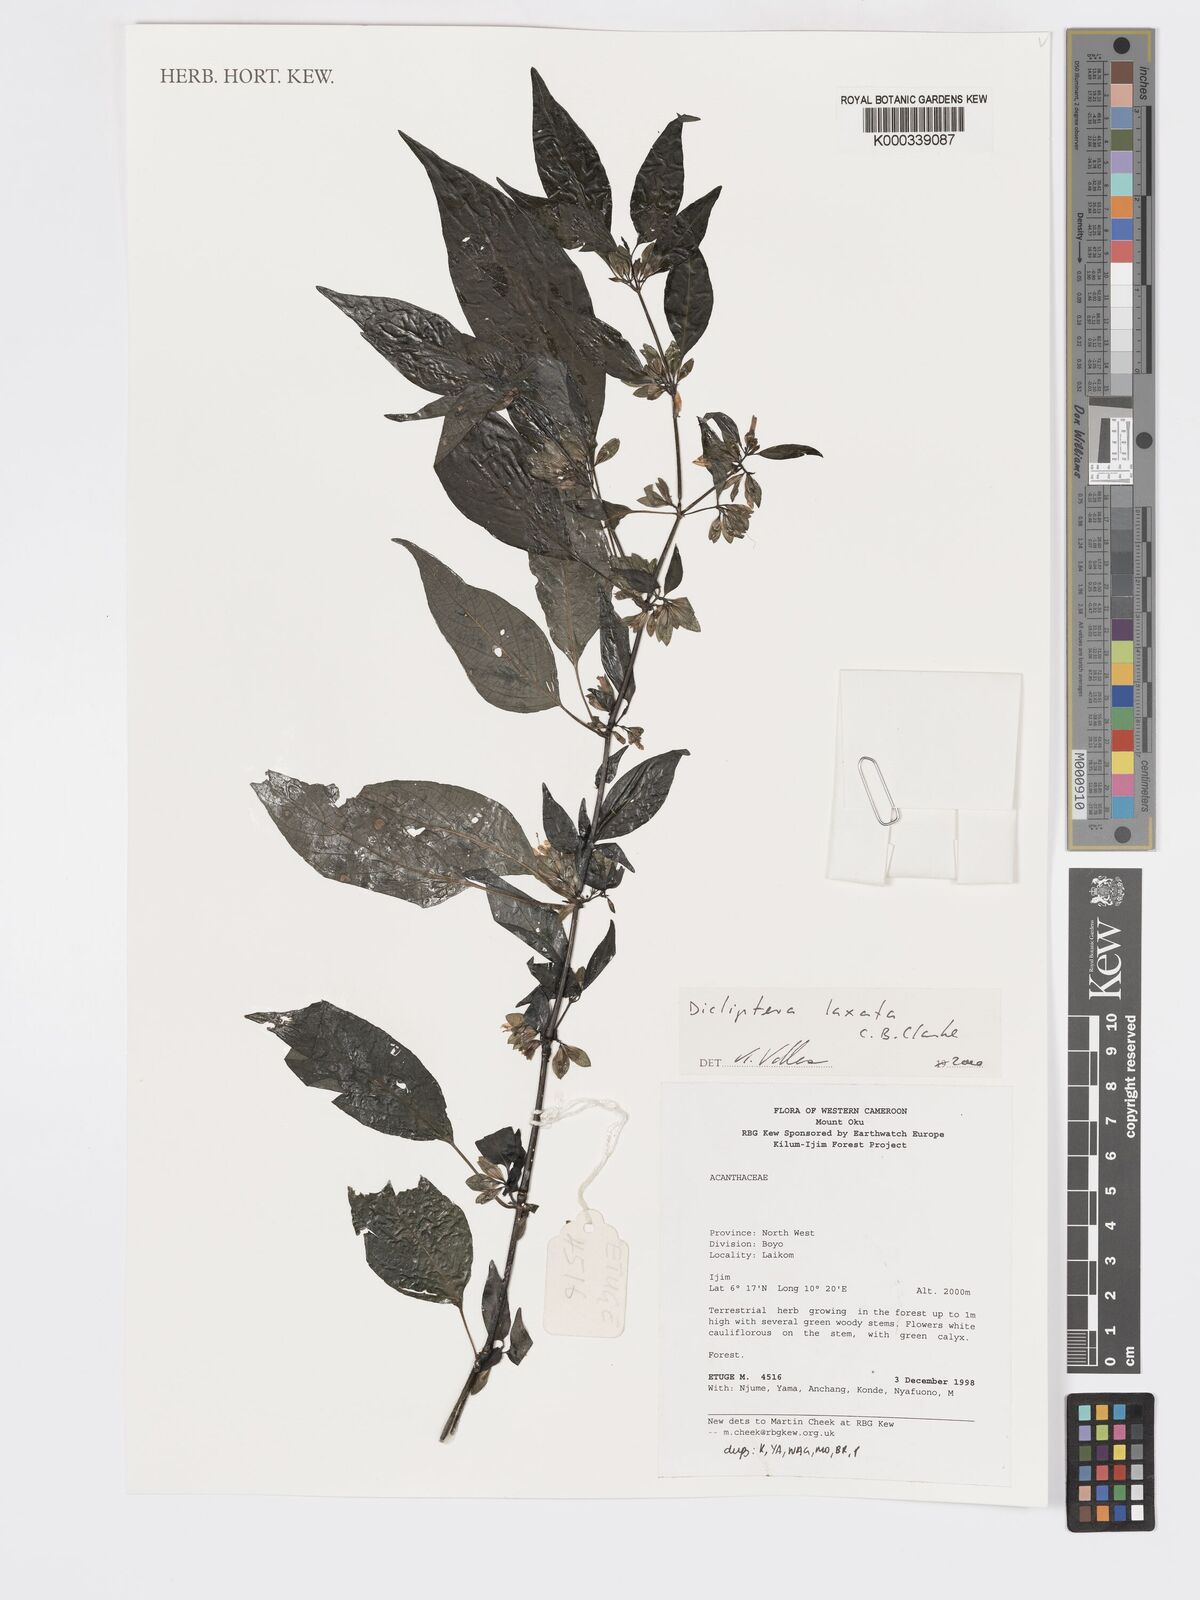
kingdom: Plantae
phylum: Tracheophyta
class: Magnoliopsida
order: Lamiales
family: Acanthaceae
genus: Dicliptera
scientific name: Dicliptera laxata
